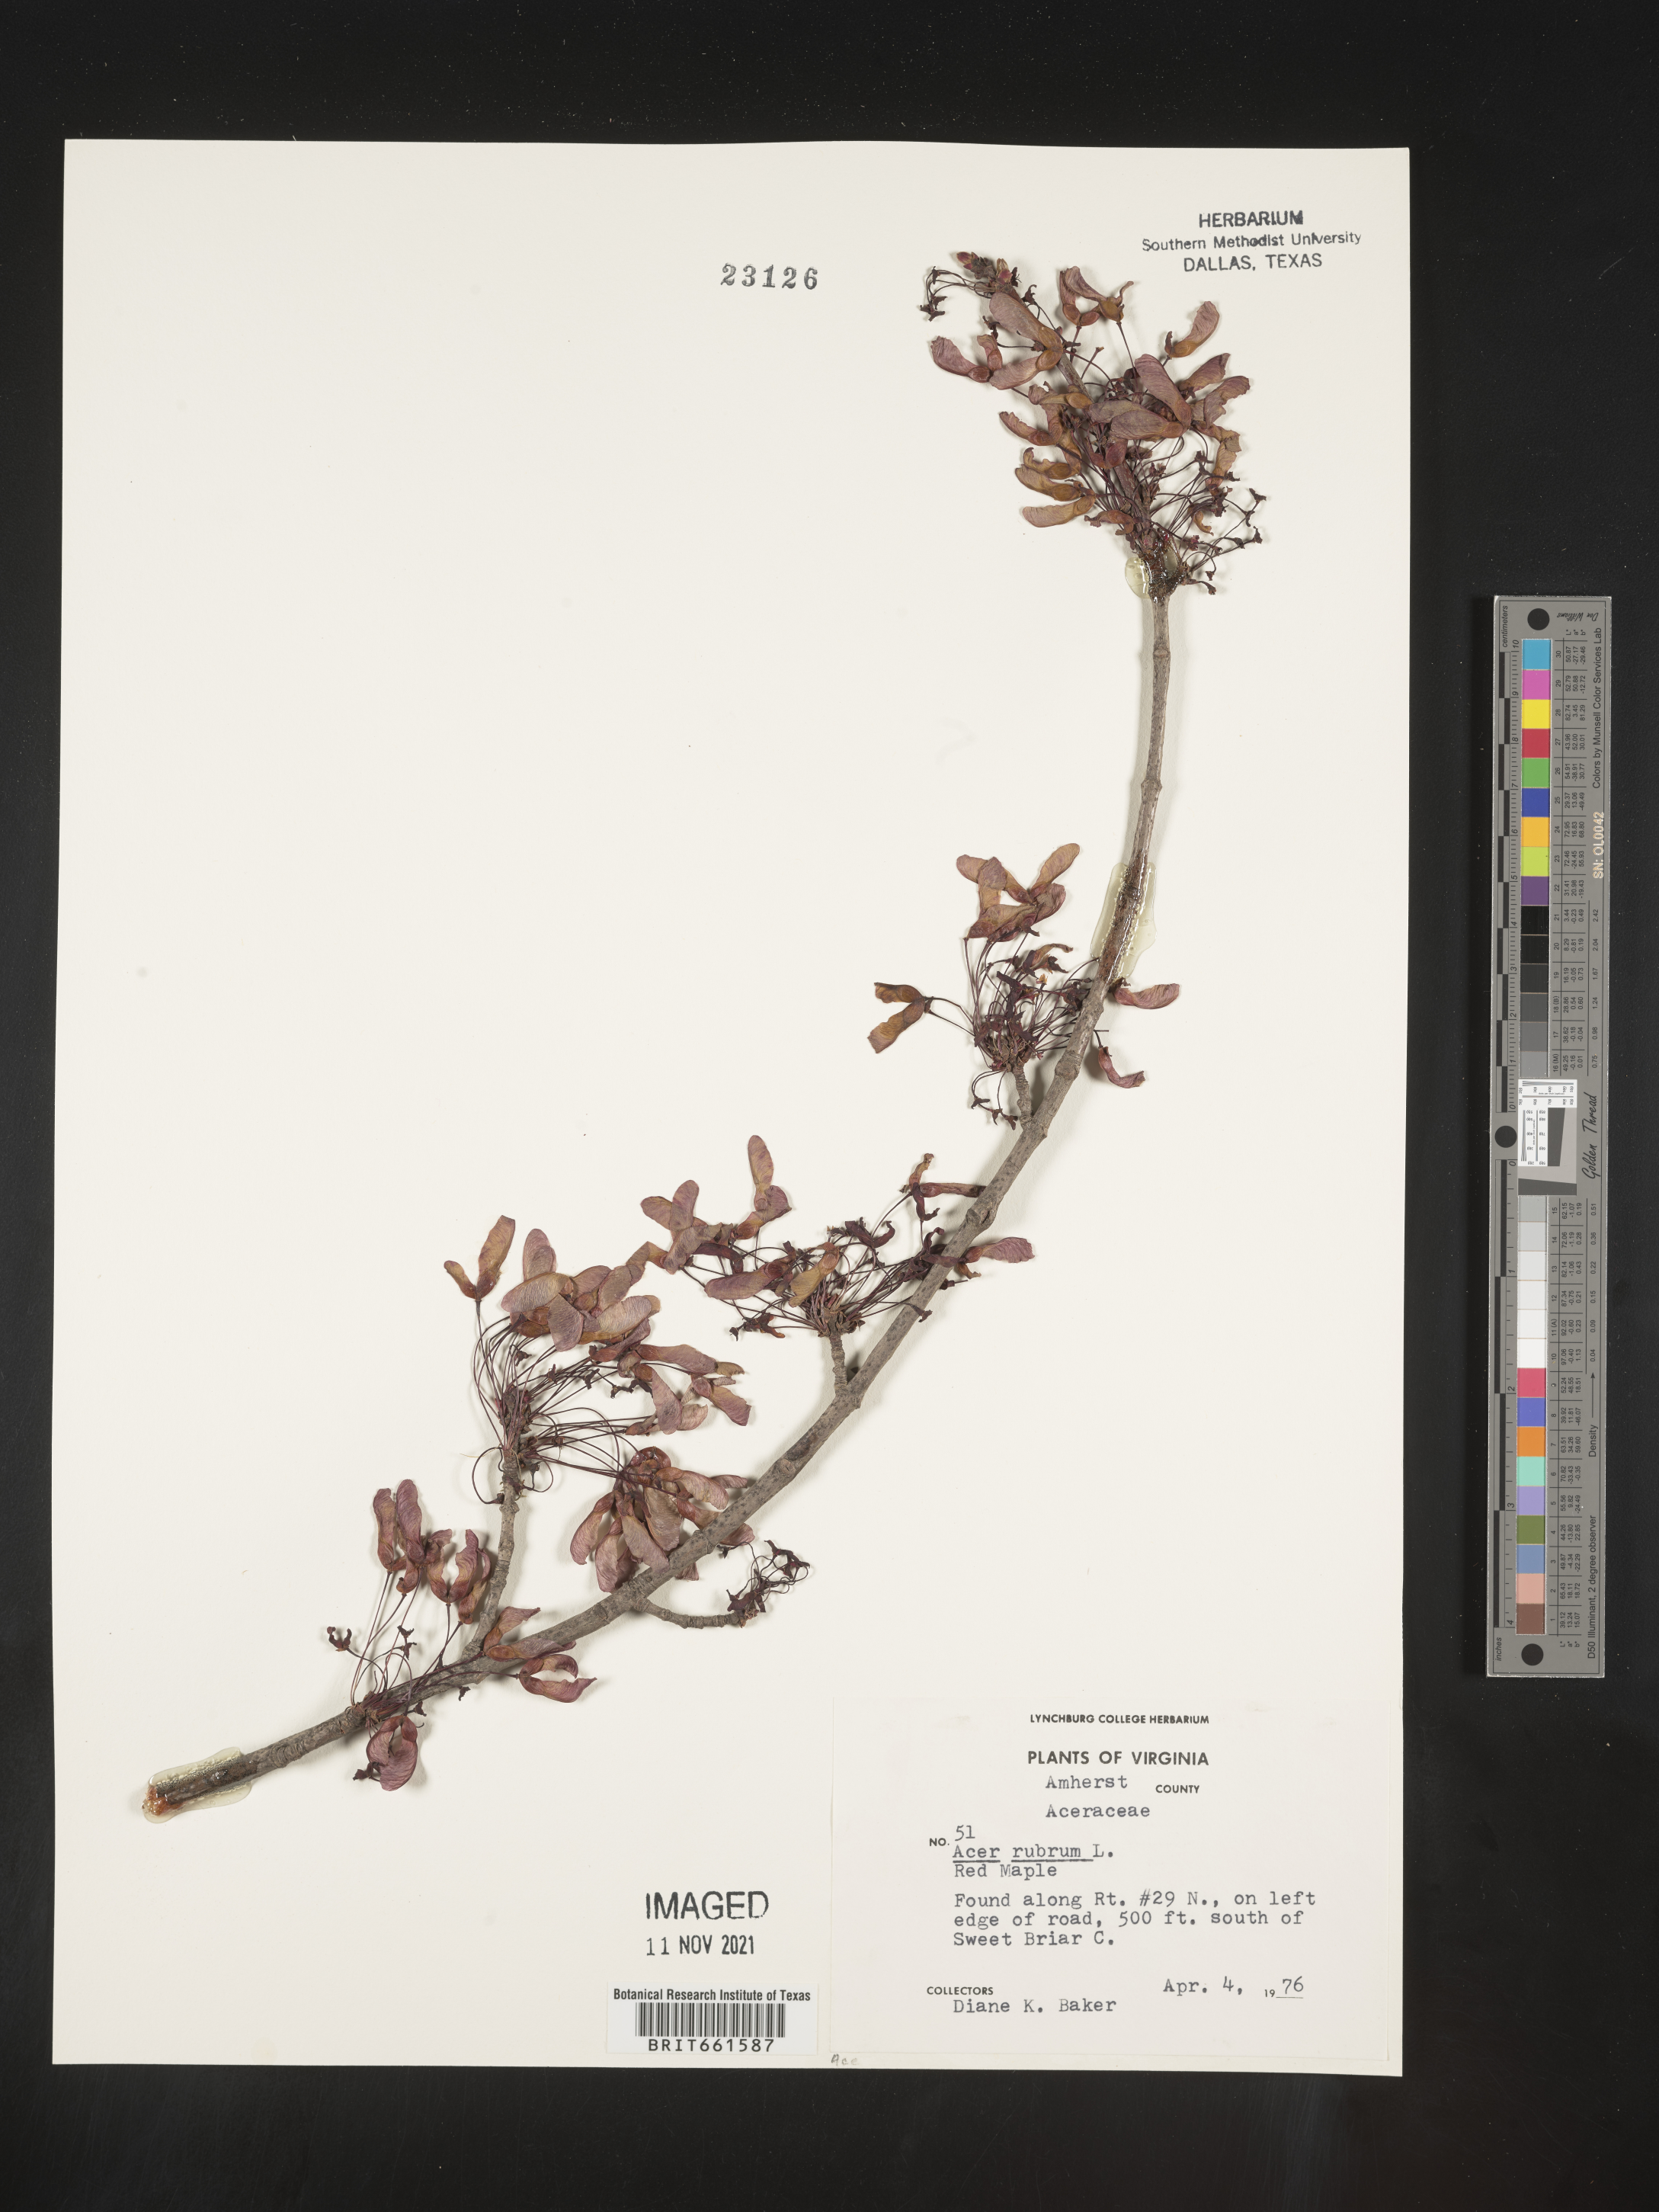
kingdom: Plantae
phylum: Tracheophyta
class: Magnoliopsida
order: Sapindales
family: Sapindaceae
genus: Acer
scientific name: Acer rubrum
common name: Red maple
